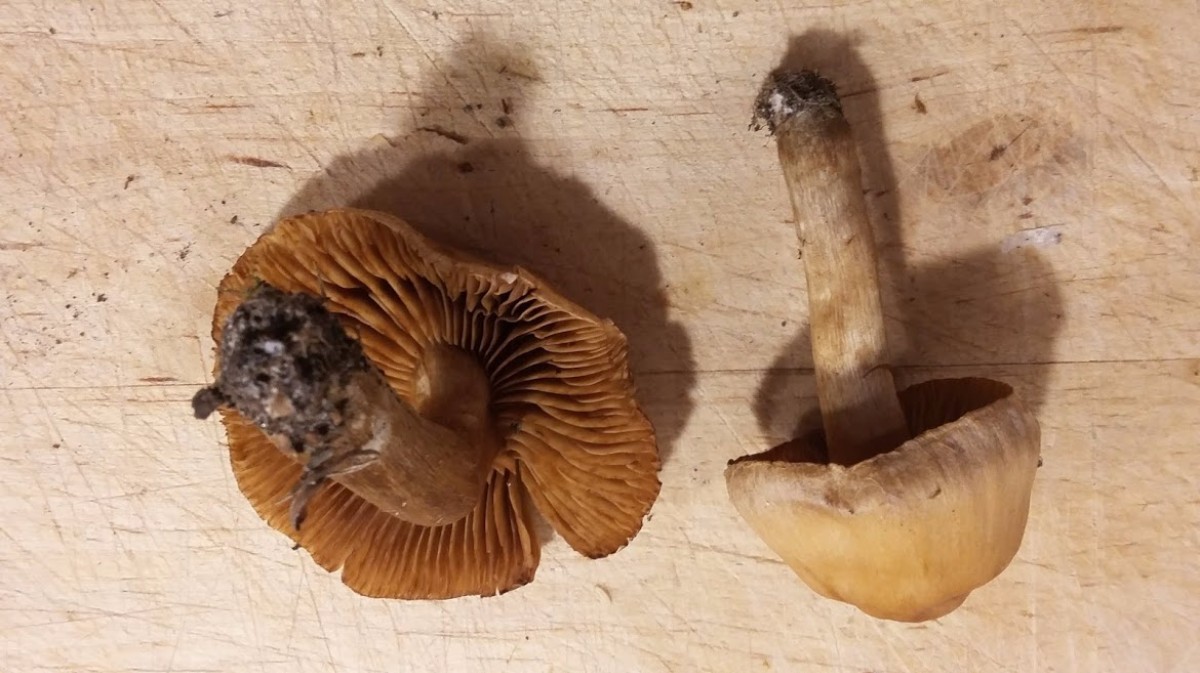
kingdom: Fungi
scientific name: Fungi
